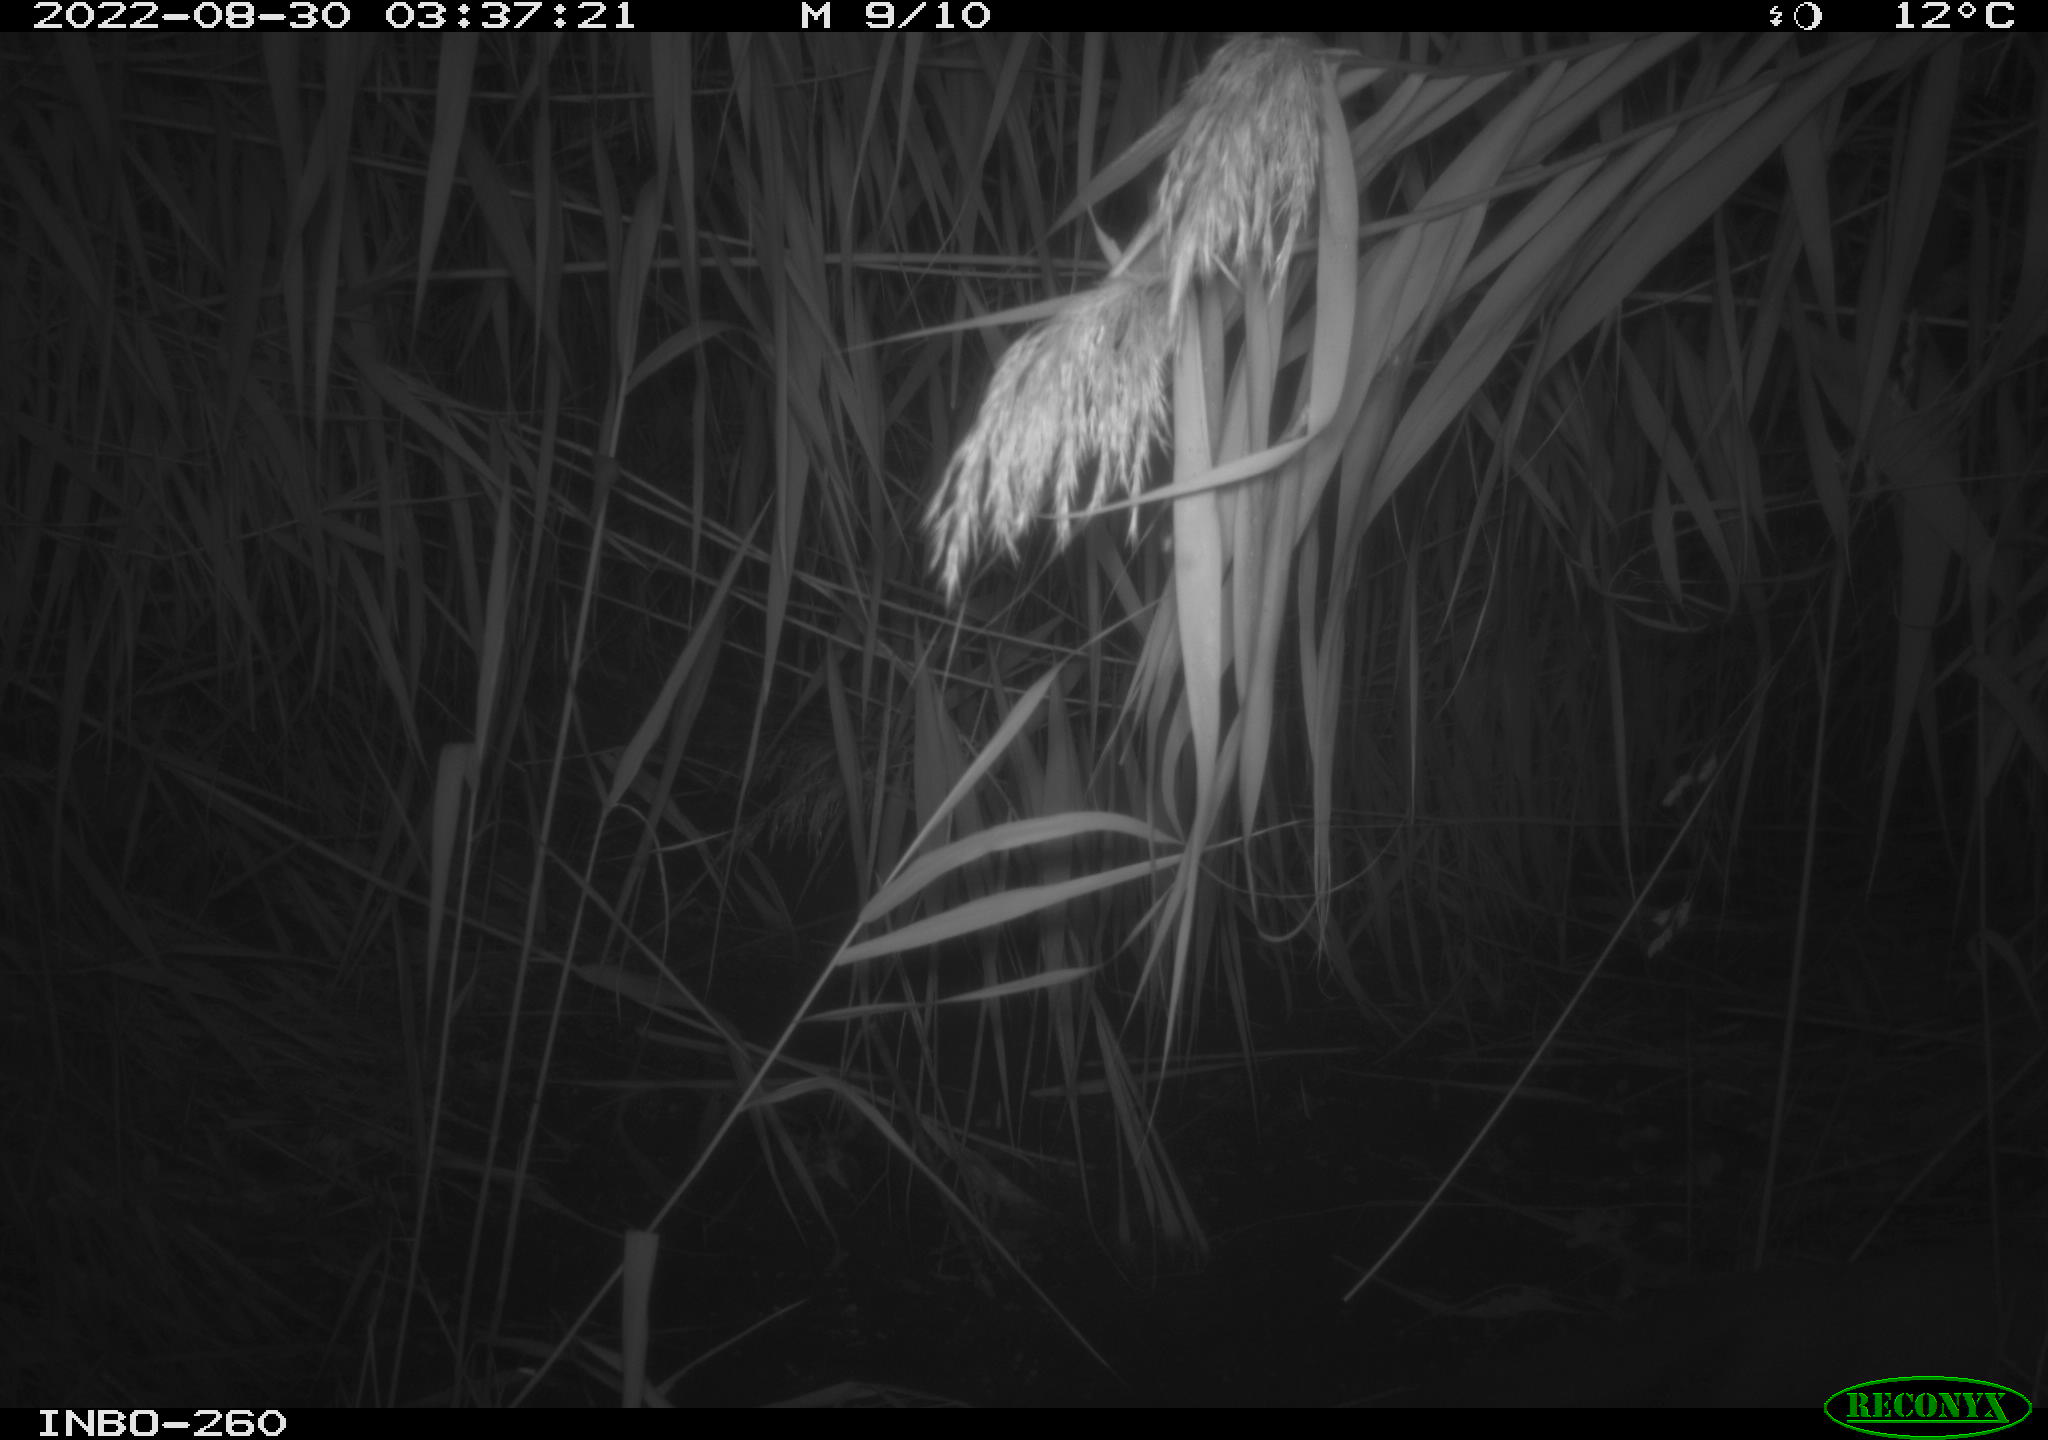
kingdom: Animalia
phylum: Chordata
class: Mammalia
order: Carnivora
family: Mustelidae
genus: Martes
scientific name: Martes
